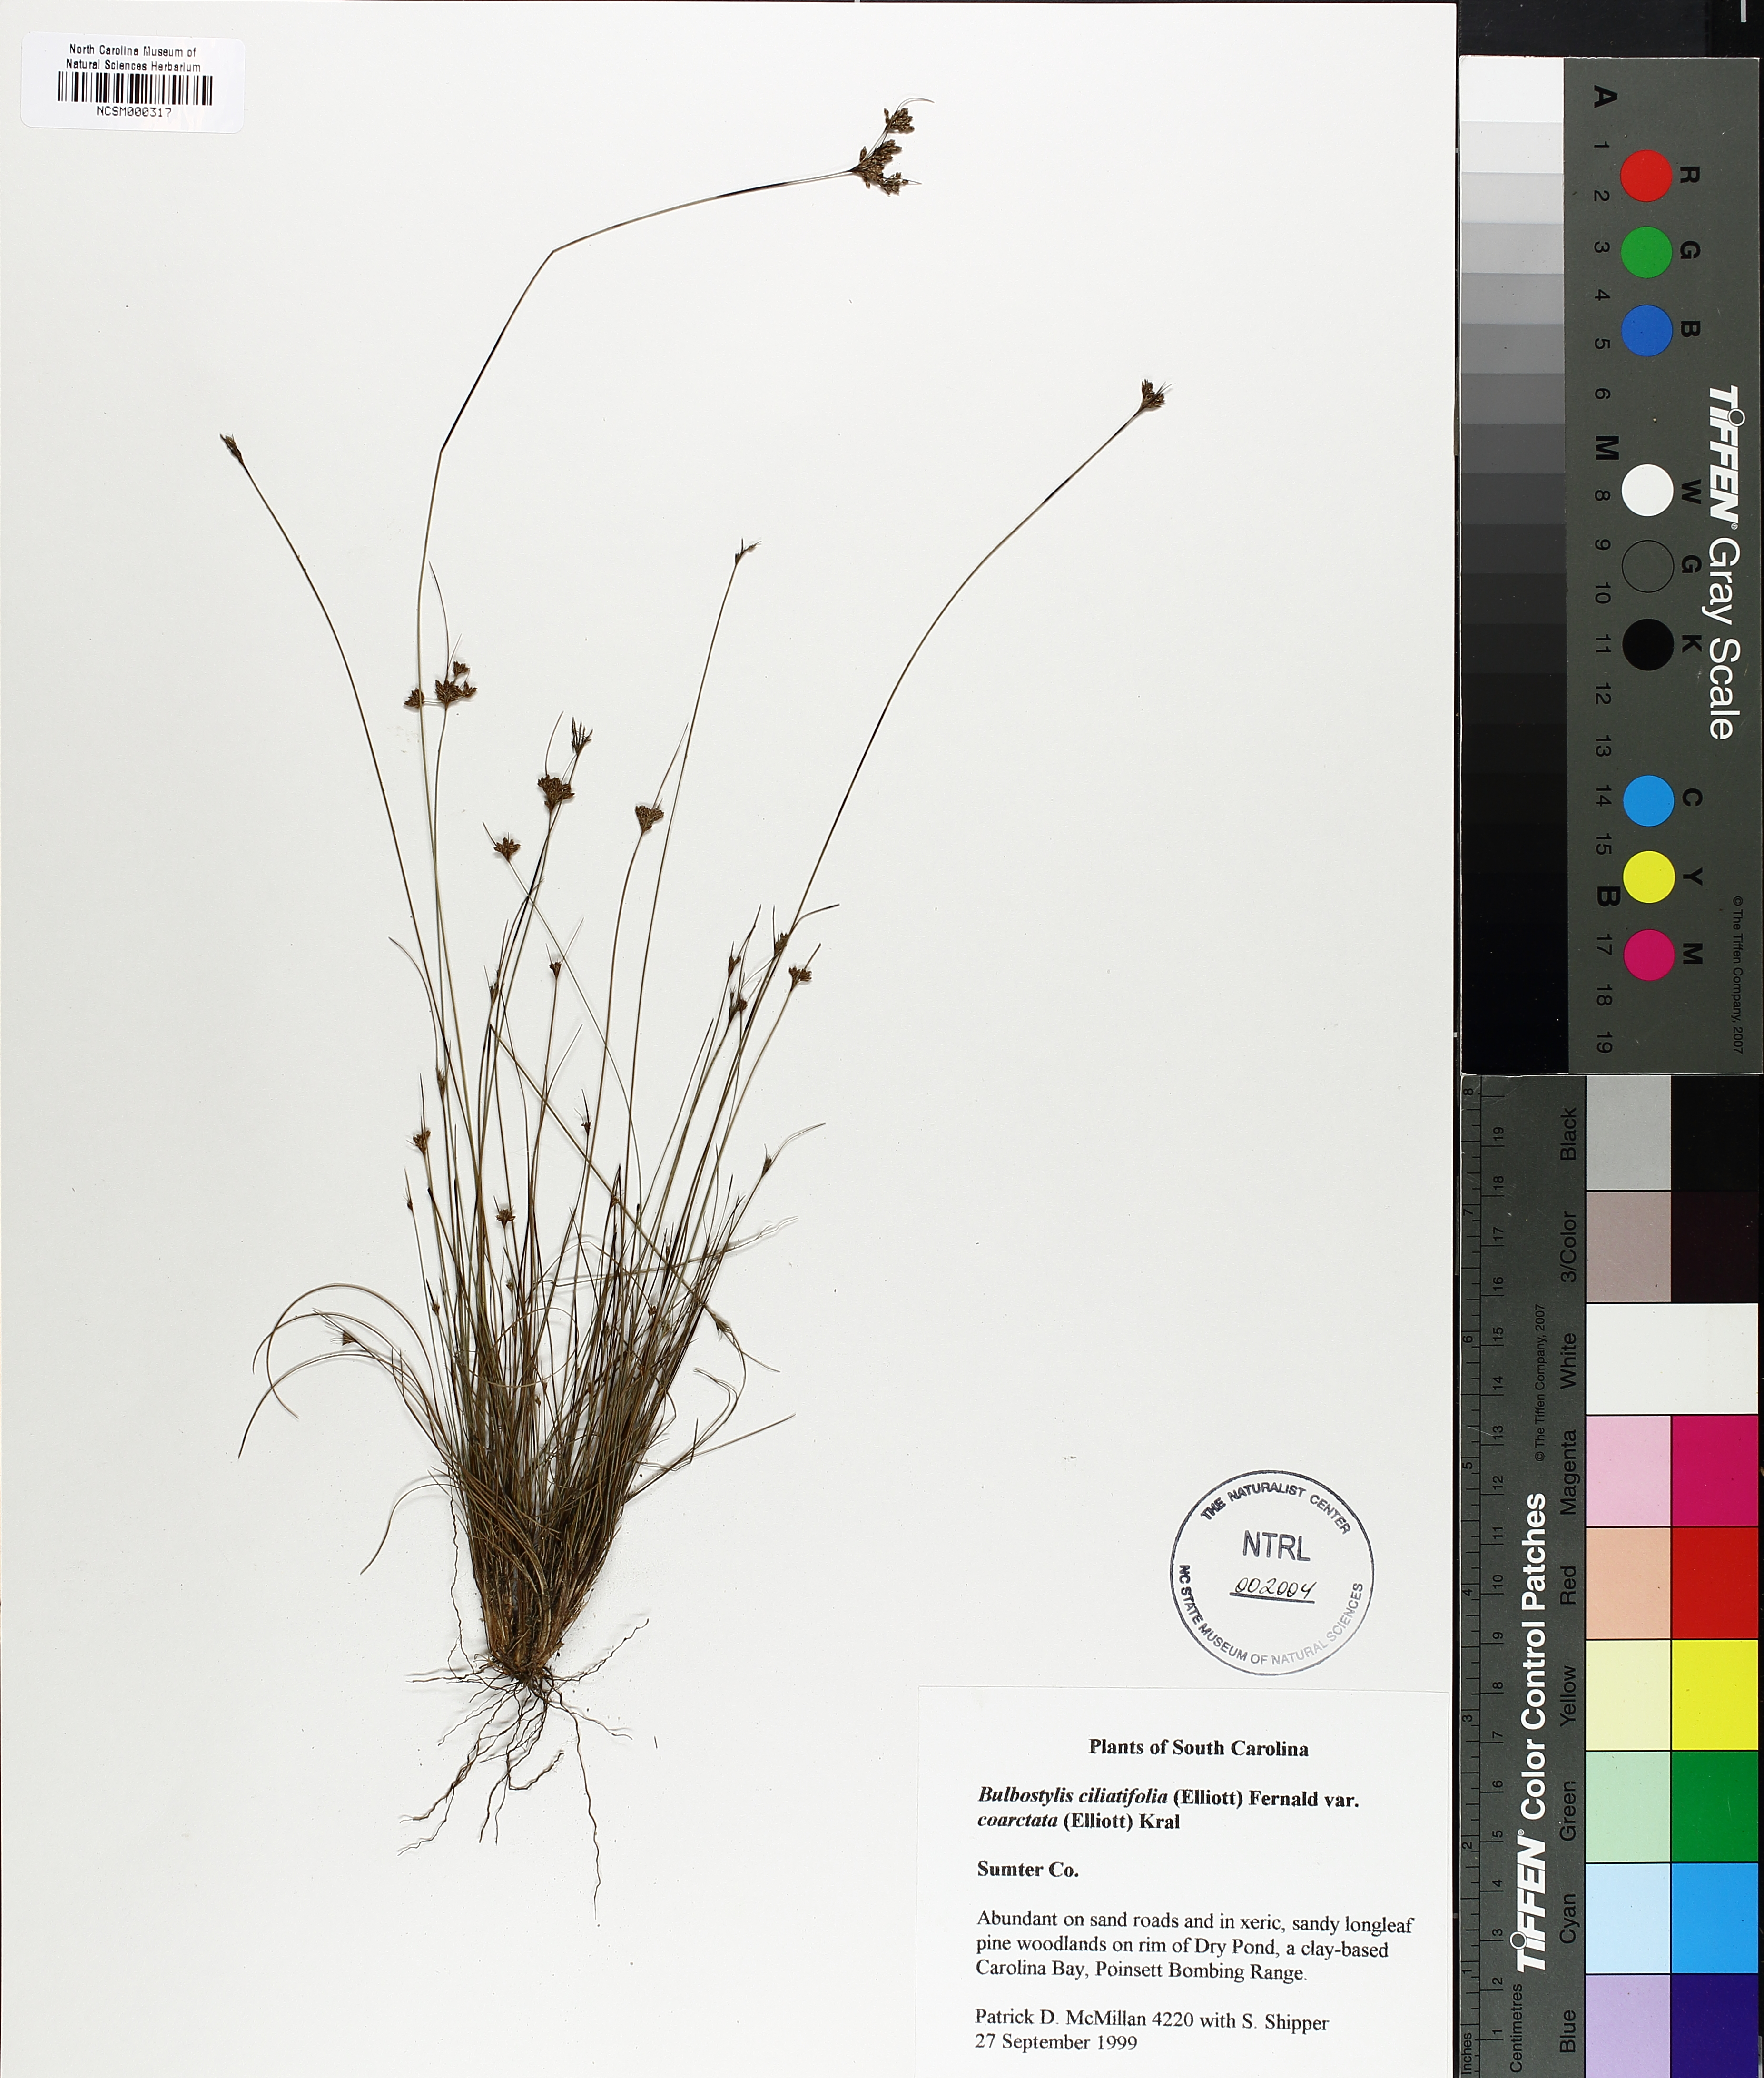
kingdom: Plantae
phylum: Tracheophyta
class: Liliopsida
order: Poales
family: Cyperaceae
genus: Bulbostylis
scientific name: Bulbostylis ciliatifolia
